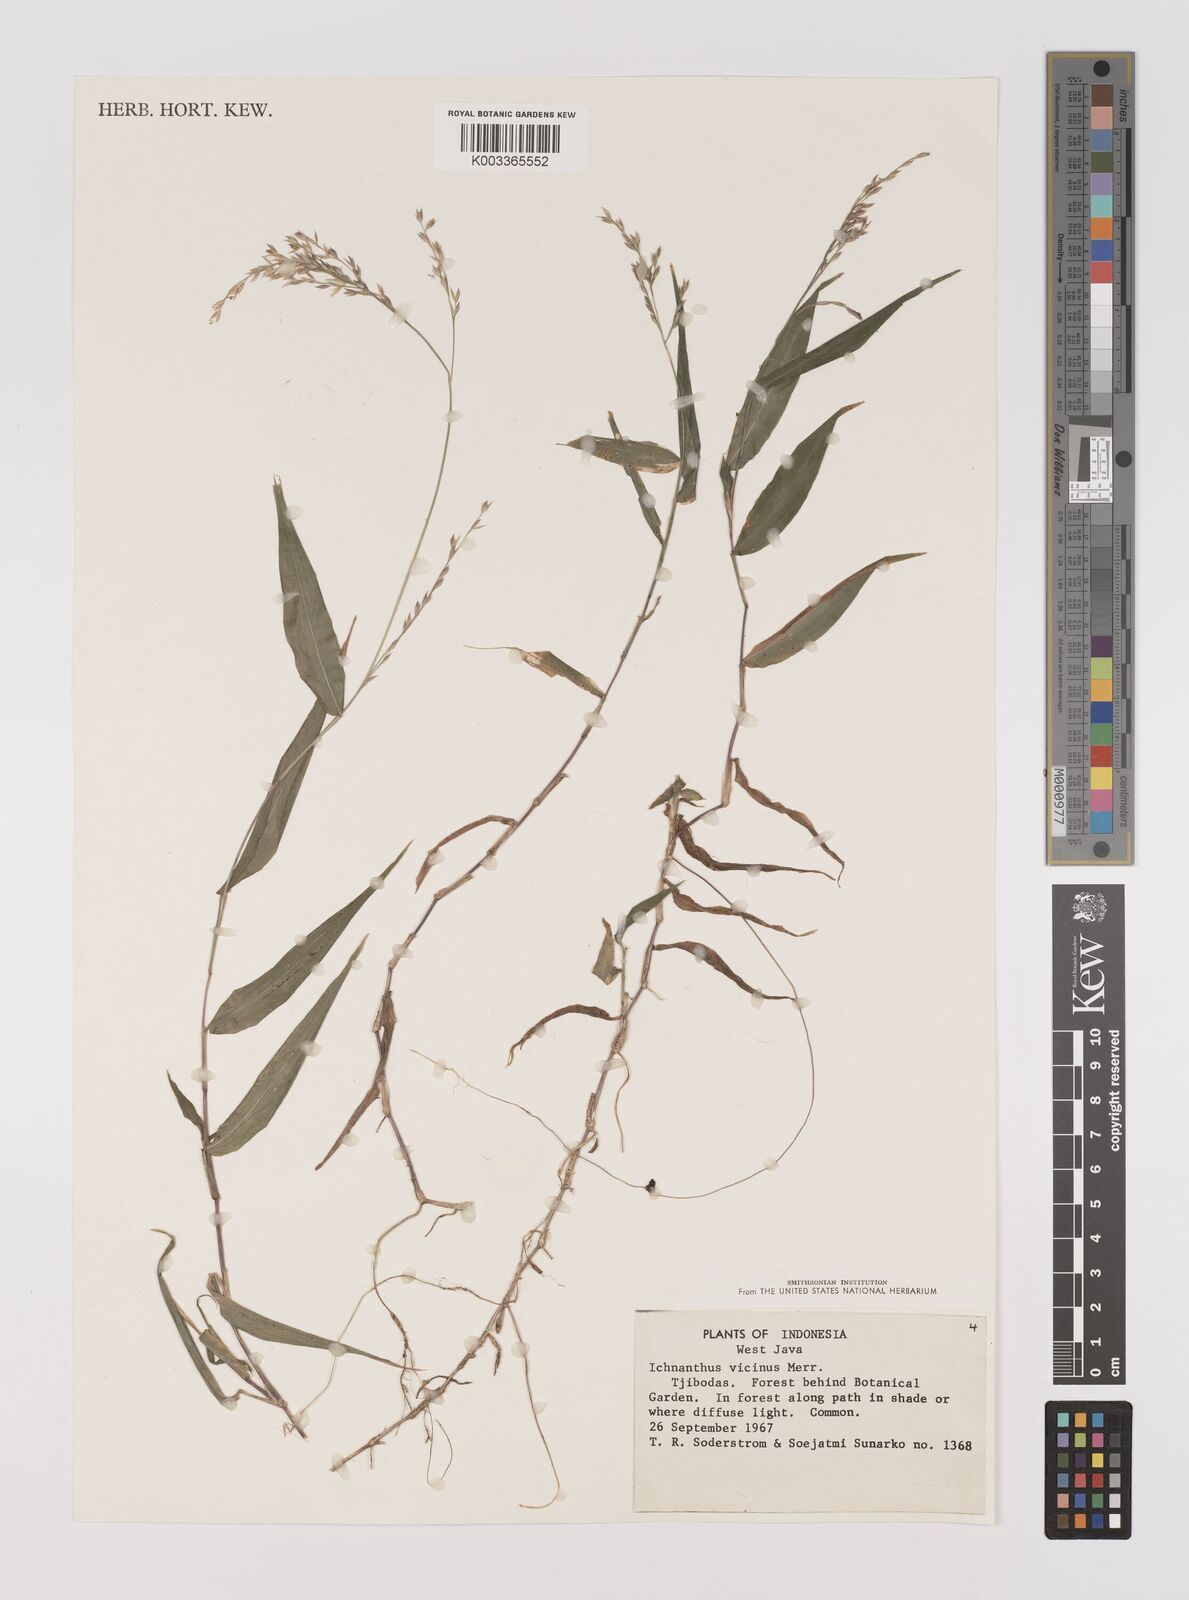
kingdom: Plantae
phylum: Tracheophyta
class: Liliopsida
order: Poales
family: Poaceae
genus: Ichnanthus
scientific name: Ichnanthus pallens
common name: Water grass
